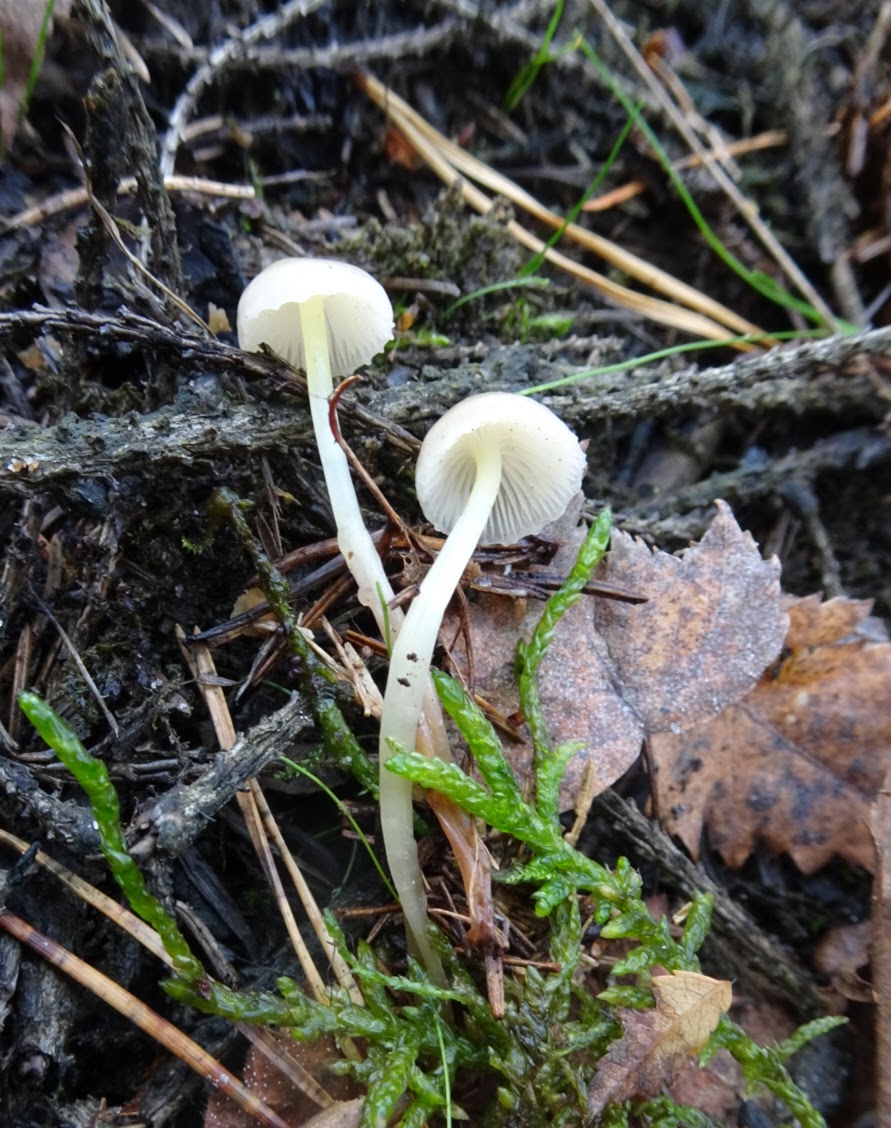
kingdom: Fungi
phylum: Basidiomycota
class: Agaricomycetes
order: Agaricales
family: Mycenaceae
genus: Mycena
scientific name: Mycena epipterygia
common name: gulstokket huesvamp
